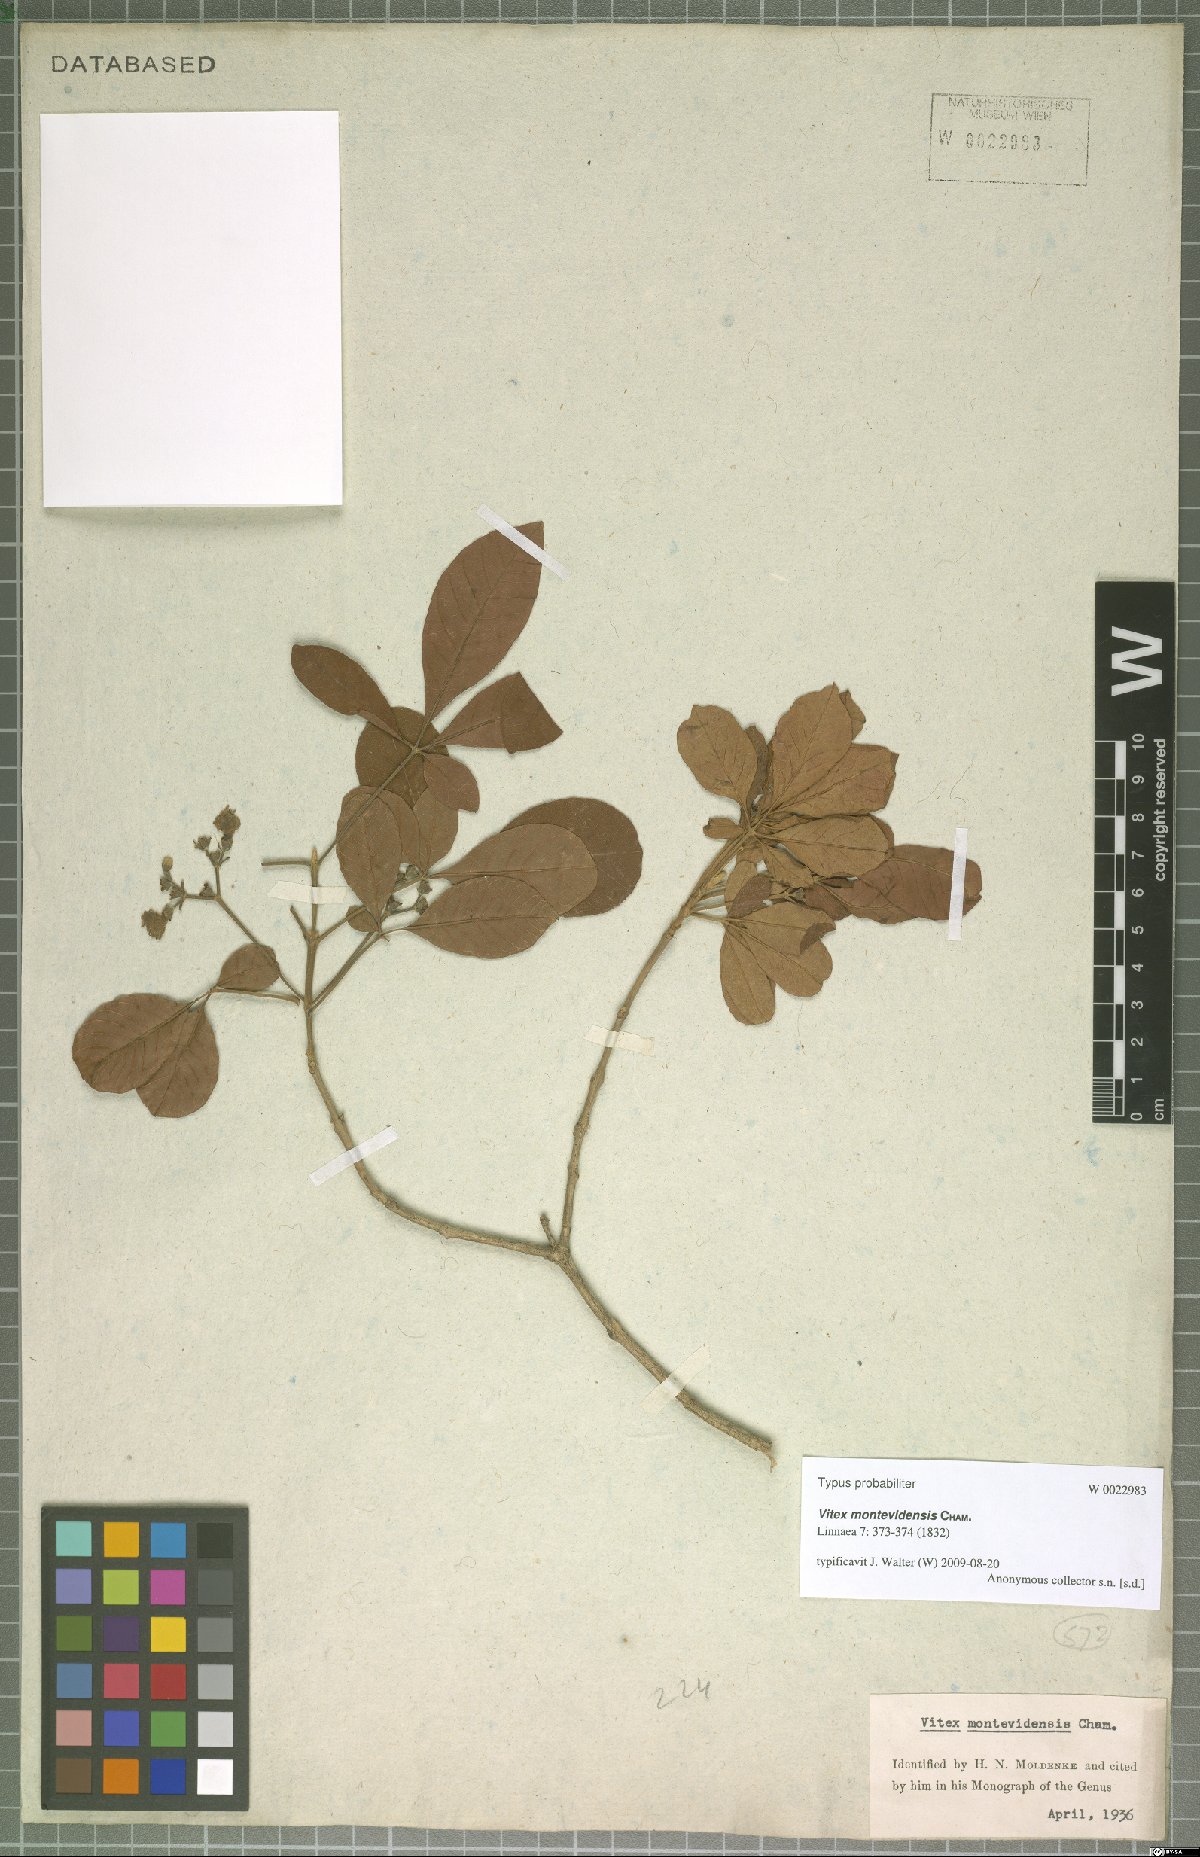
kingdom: Plantae
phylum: Tracheophyta
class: Magnoliopsida
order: Lamiales
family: Lamiaceae
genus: Vitex
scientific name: Vitex megapotamica
